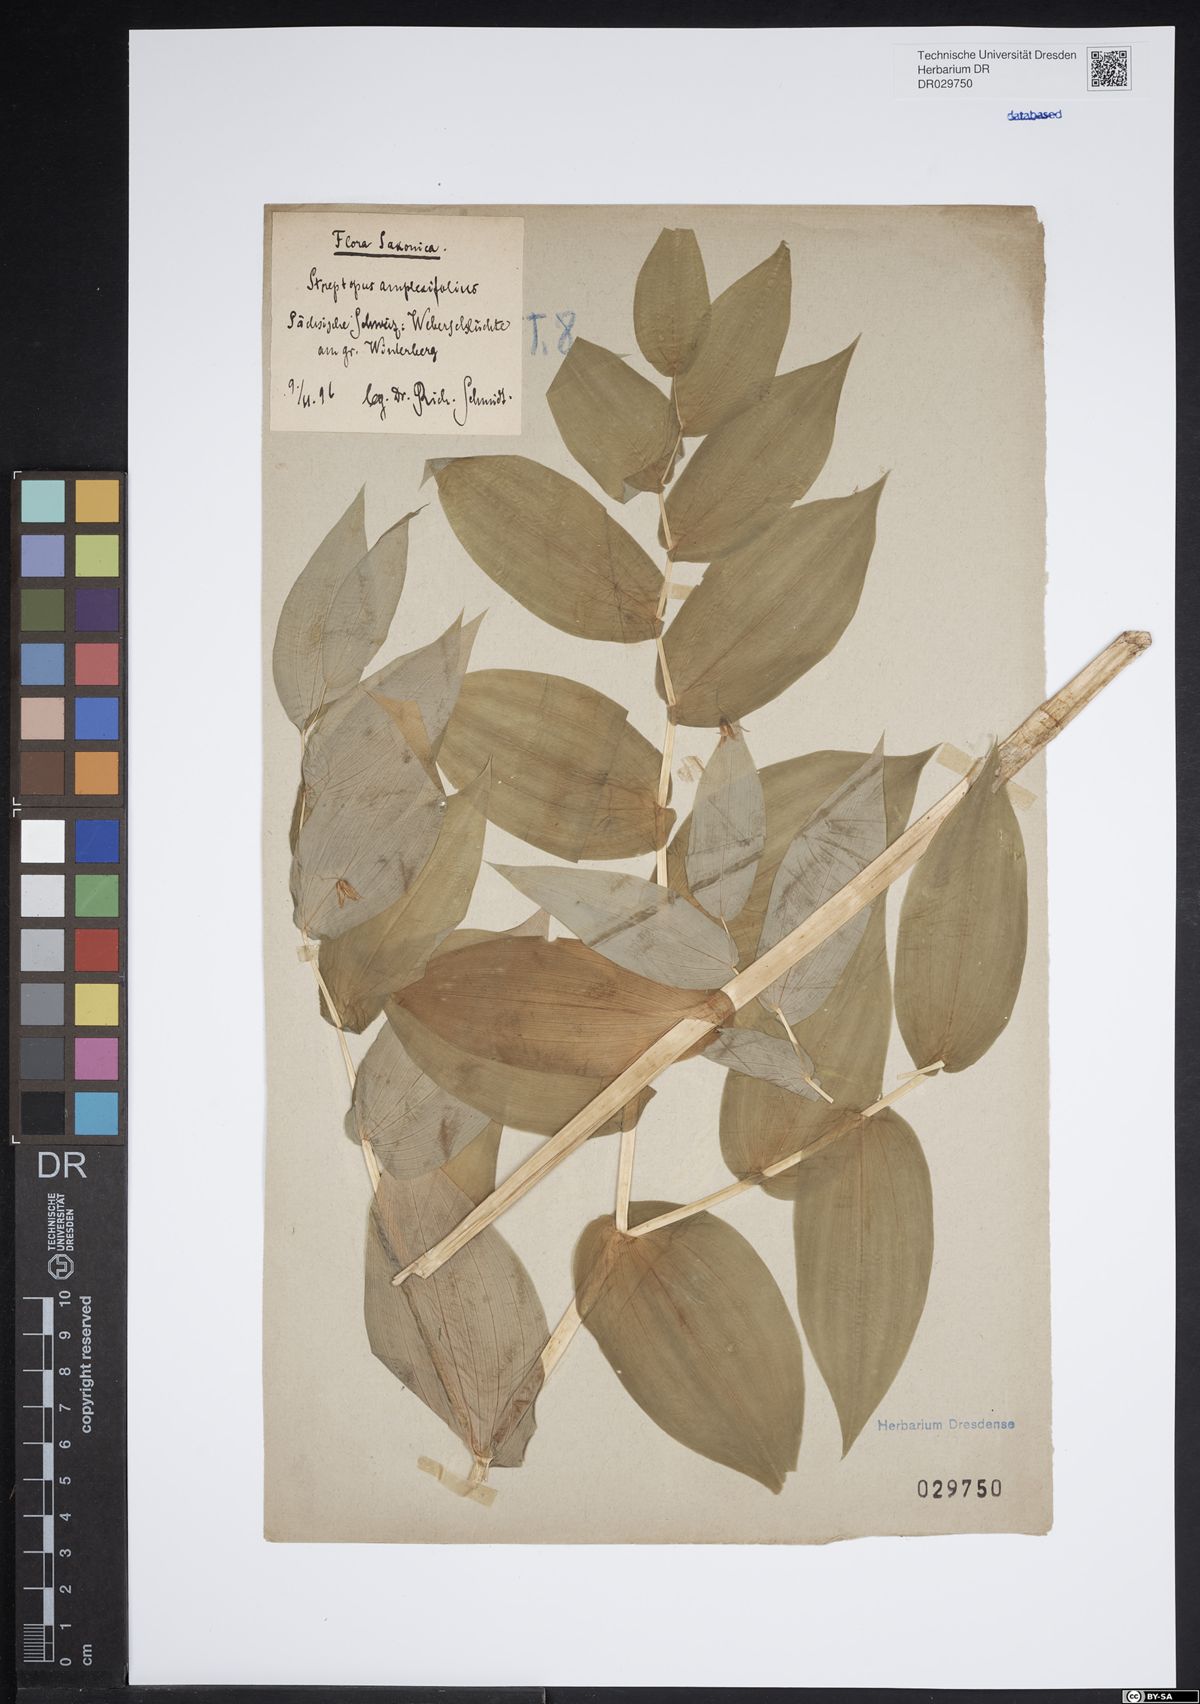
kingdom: Plantae
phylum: Tracheophyta
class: Liliopsida
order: Liliales
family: Liliaceae
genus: Streptopus
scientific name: Streptopus amplexifolius
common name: Clasp twisted stalk
